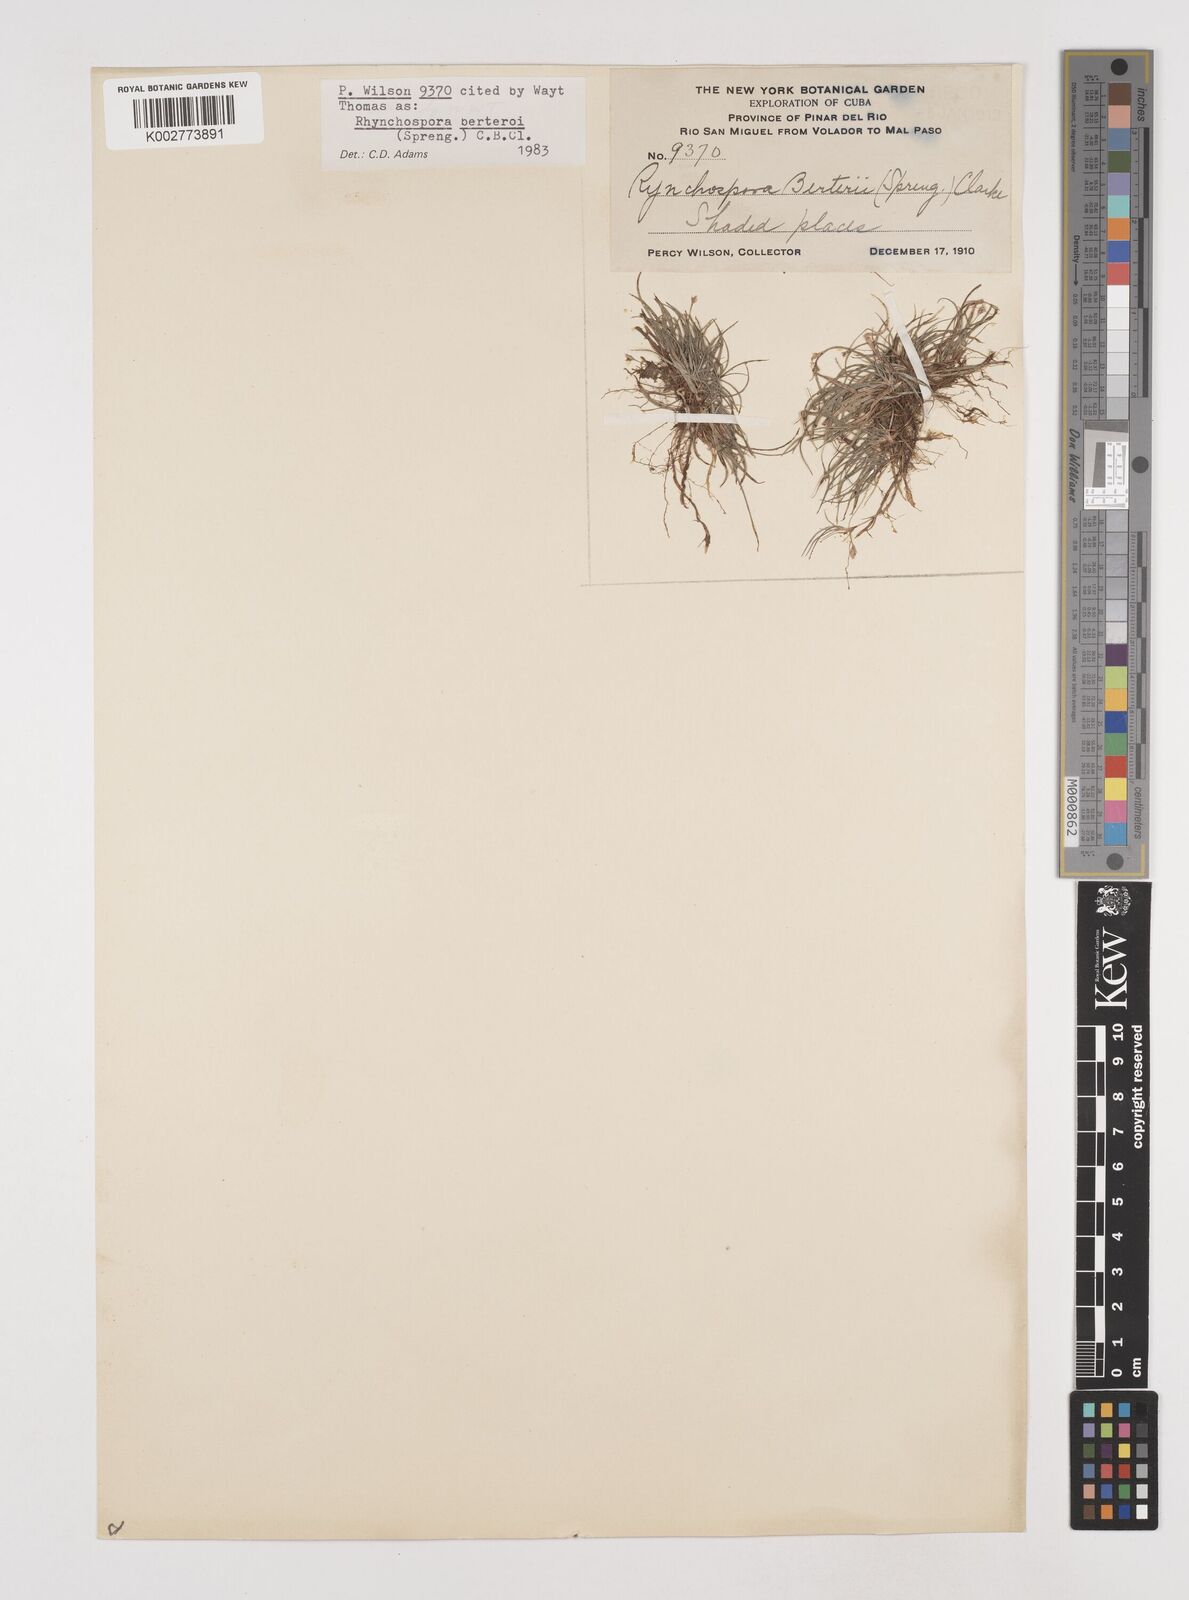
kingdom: Plantae
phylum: Tracheophyta
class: Liliopsida
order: Poales
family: Cyperaceae
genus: Rhynchospora
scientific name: Rhynchospora berteroi
